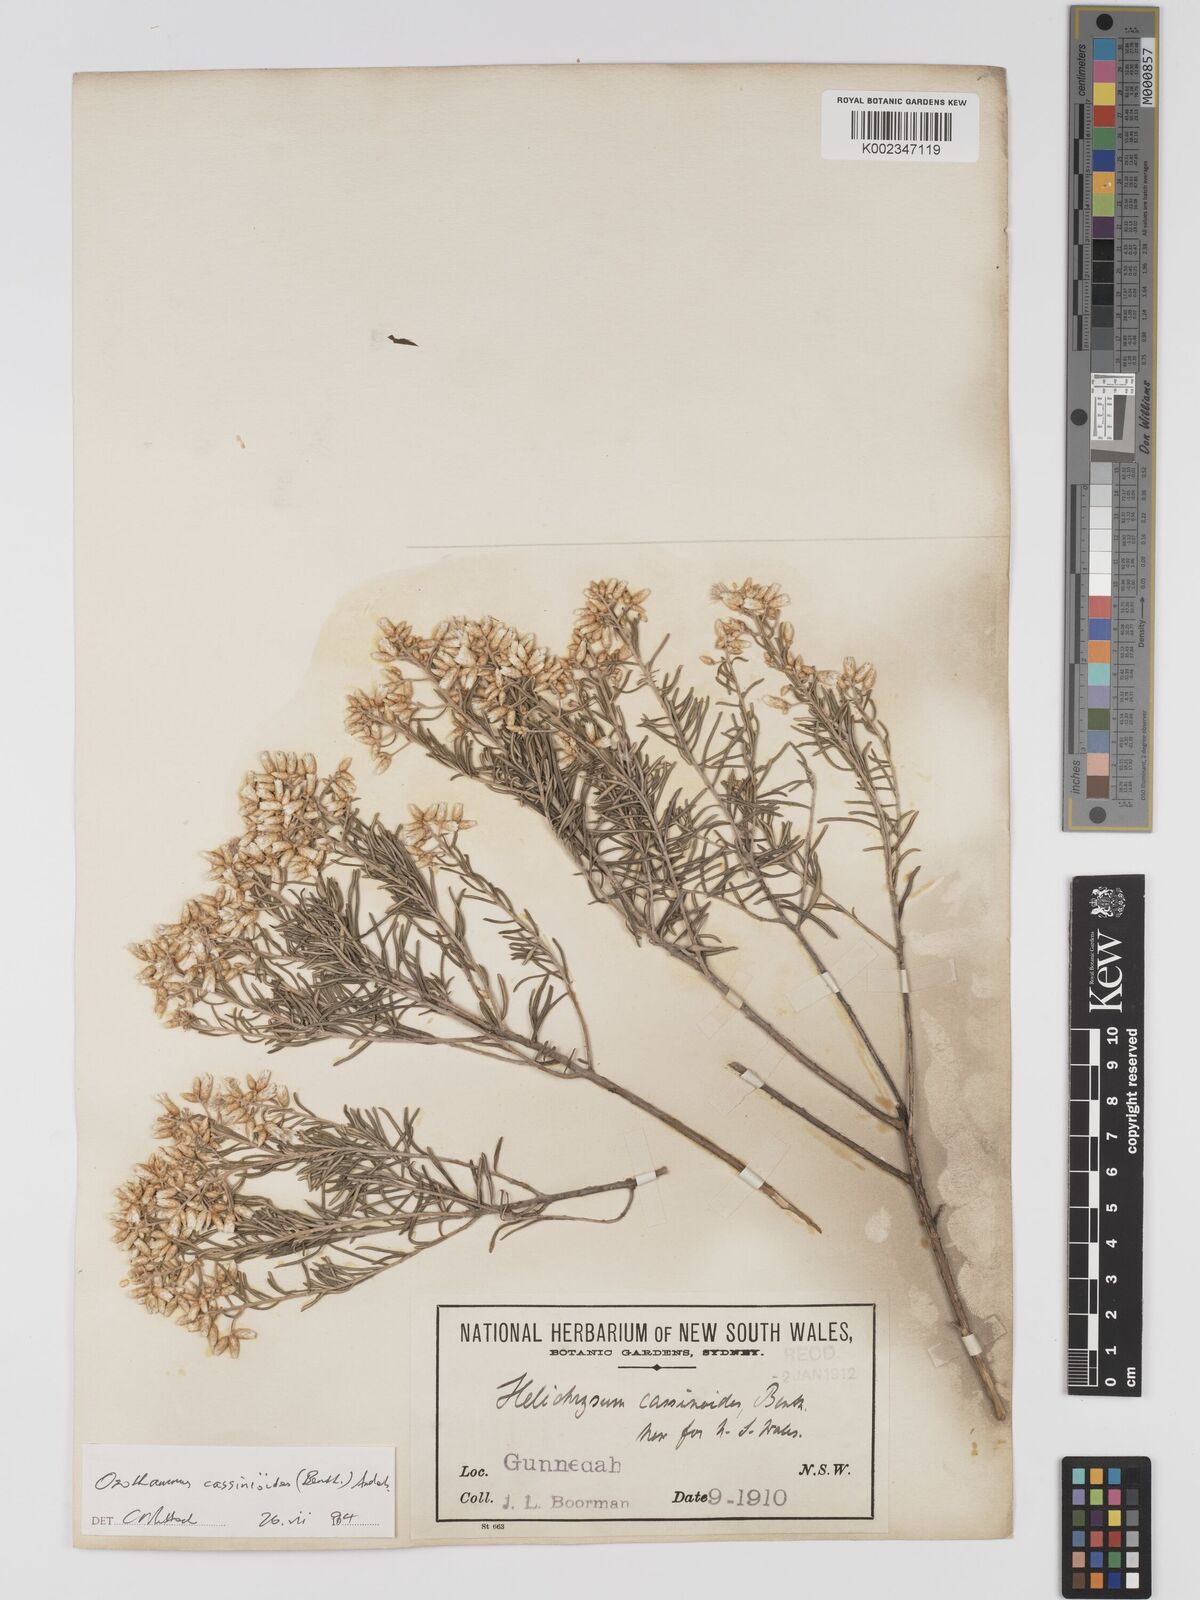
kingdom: Plantae
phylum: Tracheophyta
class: Magnoliopsida
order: Asterales
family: Asteraceae
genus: Ozothamnus
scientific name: Ozothamnus cassinioides
